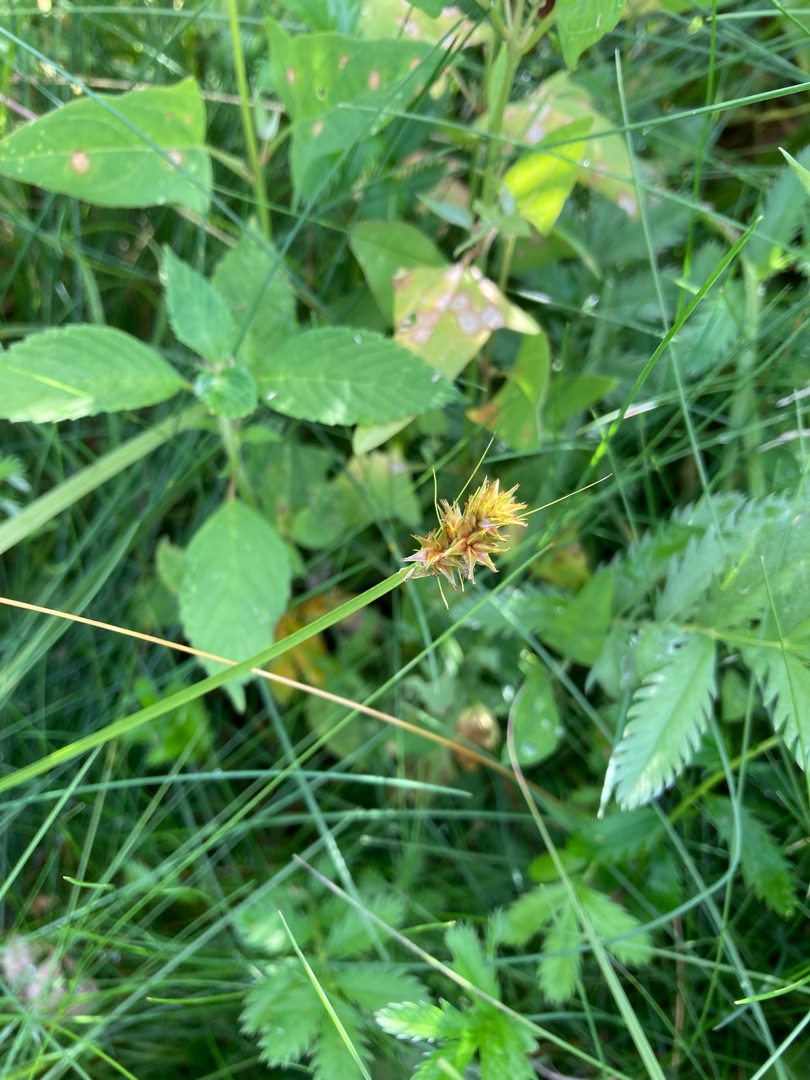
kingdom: Plantae
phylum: Tracheophyta
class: Liliopsida
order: Poales
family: Cyperaceae
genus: Carex
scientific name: Carex otrubae
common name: Sylt-star
